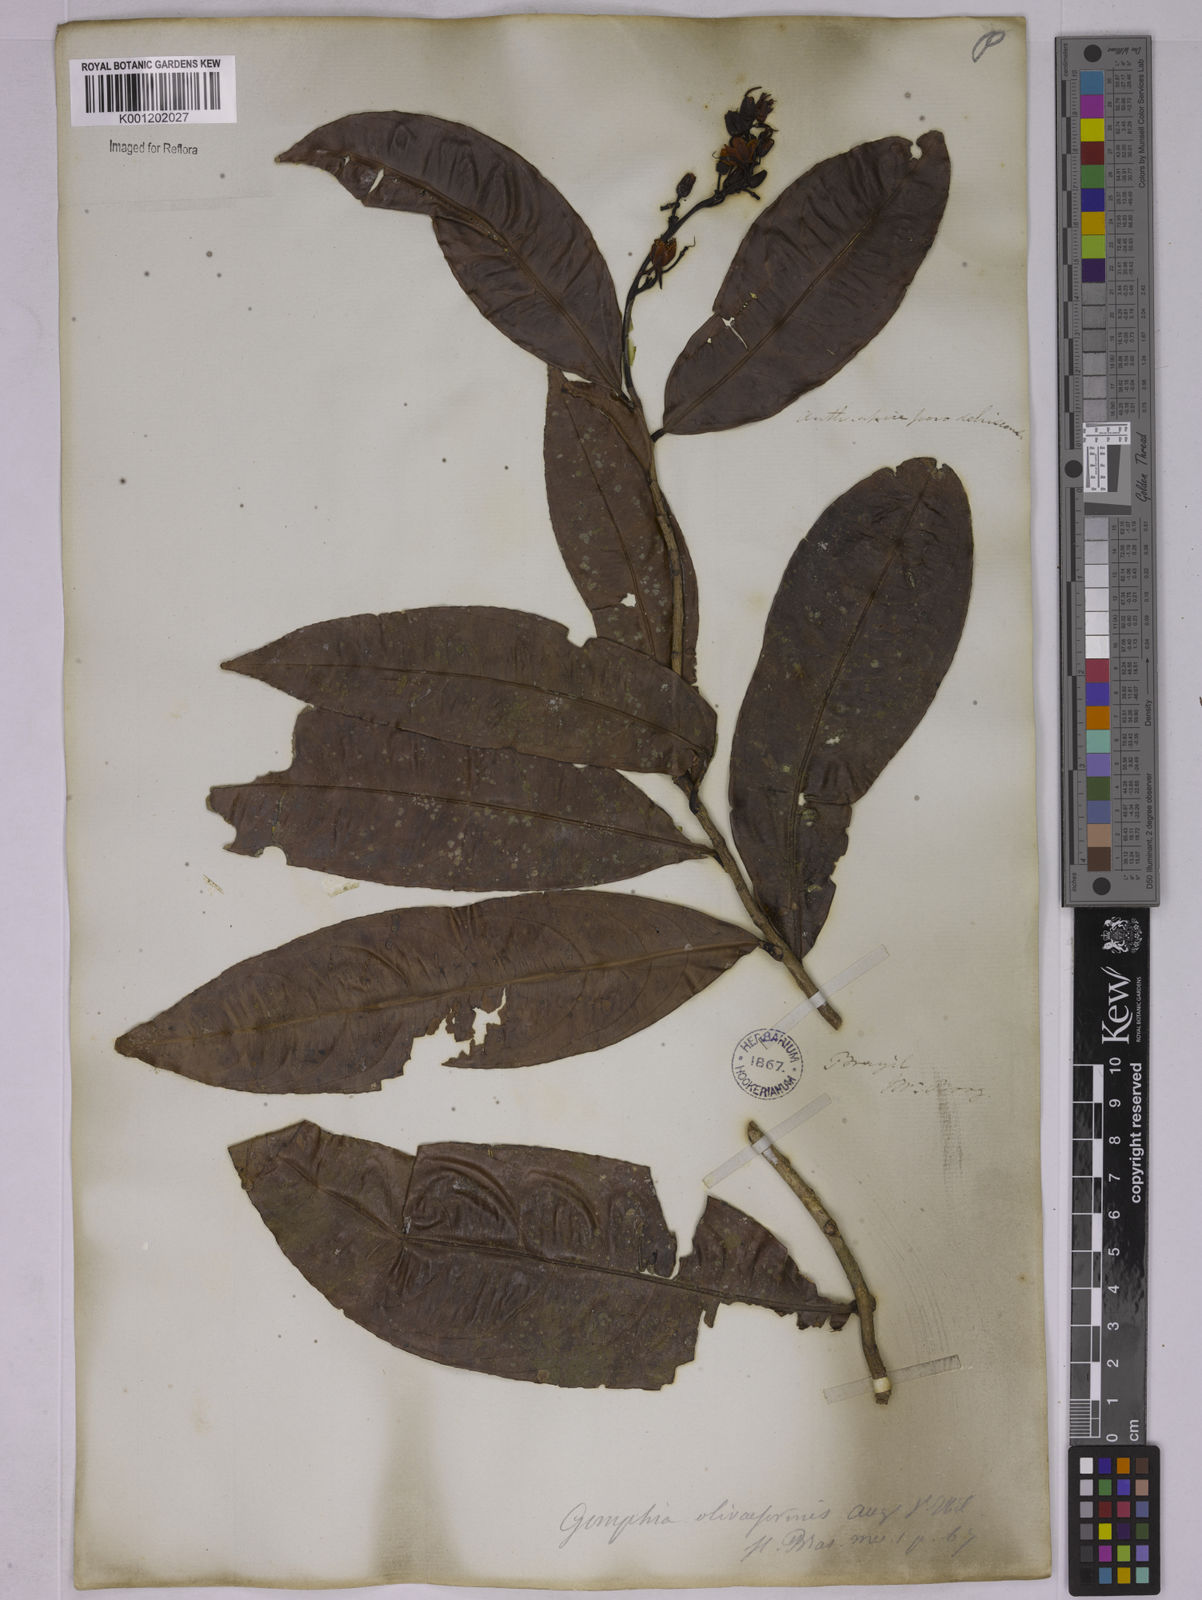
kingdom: Plantae
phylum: Tracheophyta
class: Magnoliopsida
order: Malpighiales
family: Ochnaceae
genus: Ouratea
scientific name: Ouratea oliviformis
